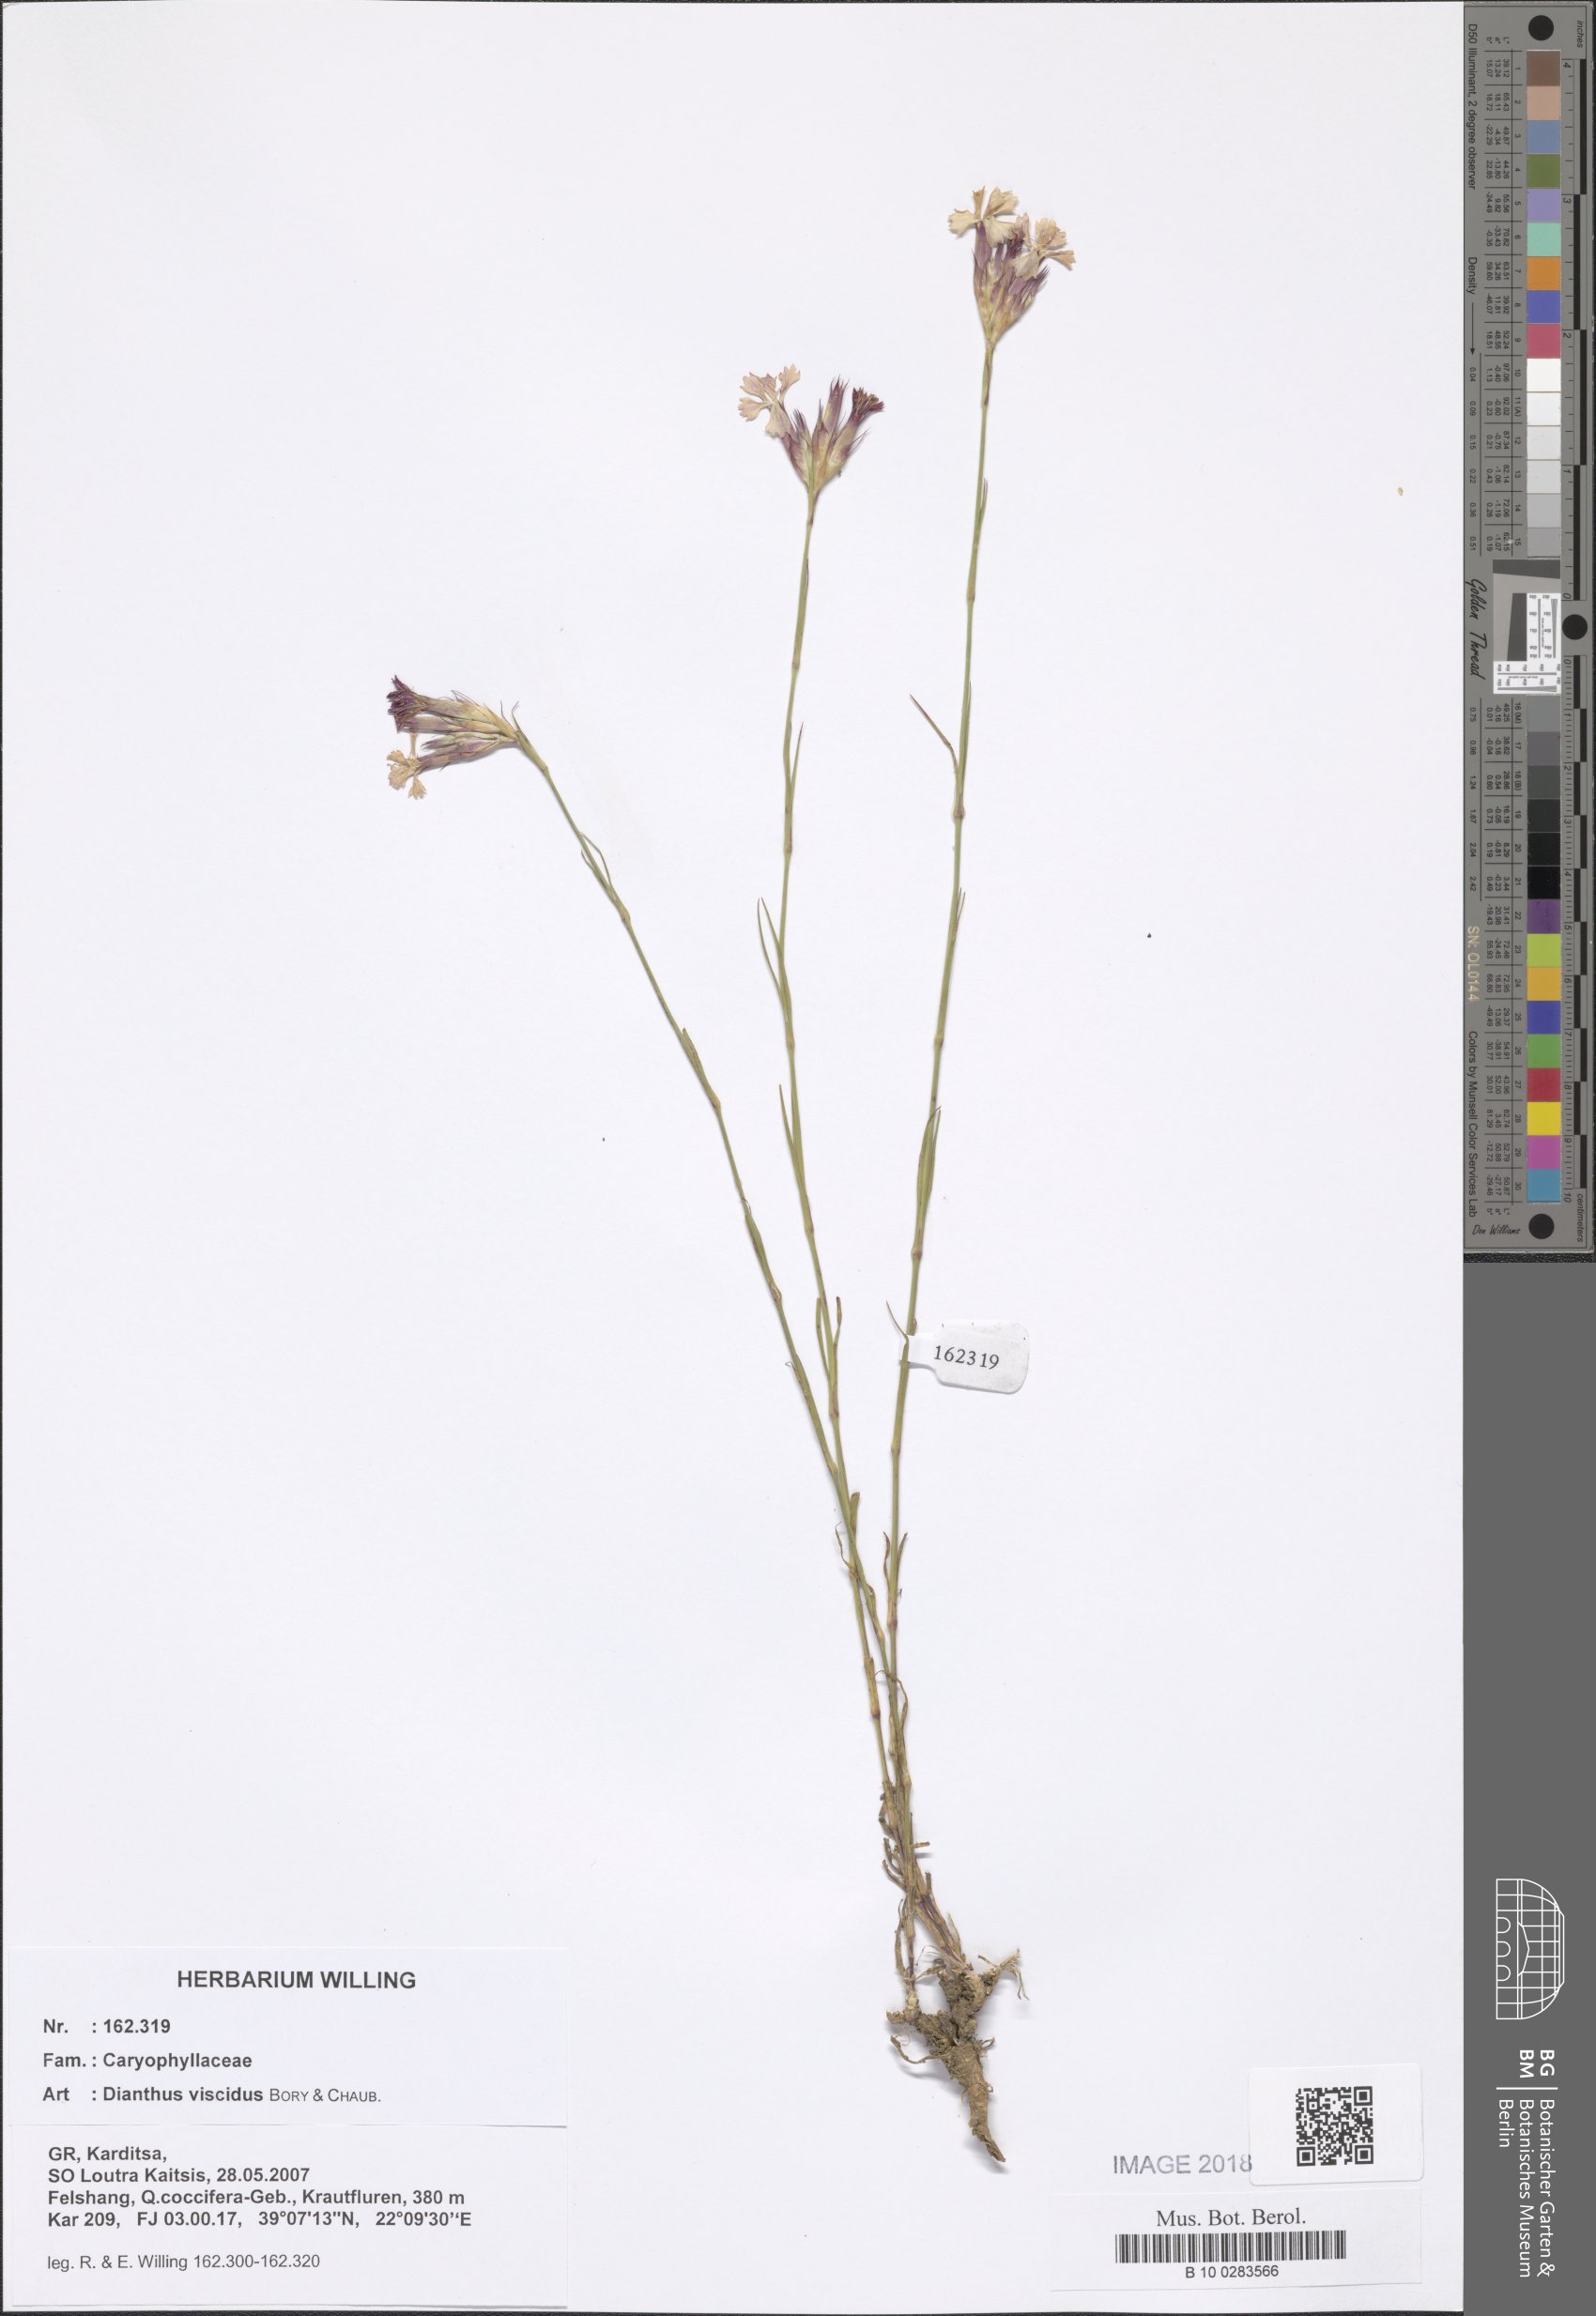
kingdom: Plantae
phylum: Tracheophyta
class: Magnoliopsida
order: Caryophyllales
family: Caryophyllaceae
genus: Dianthus
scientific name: Dianthus viscidus
